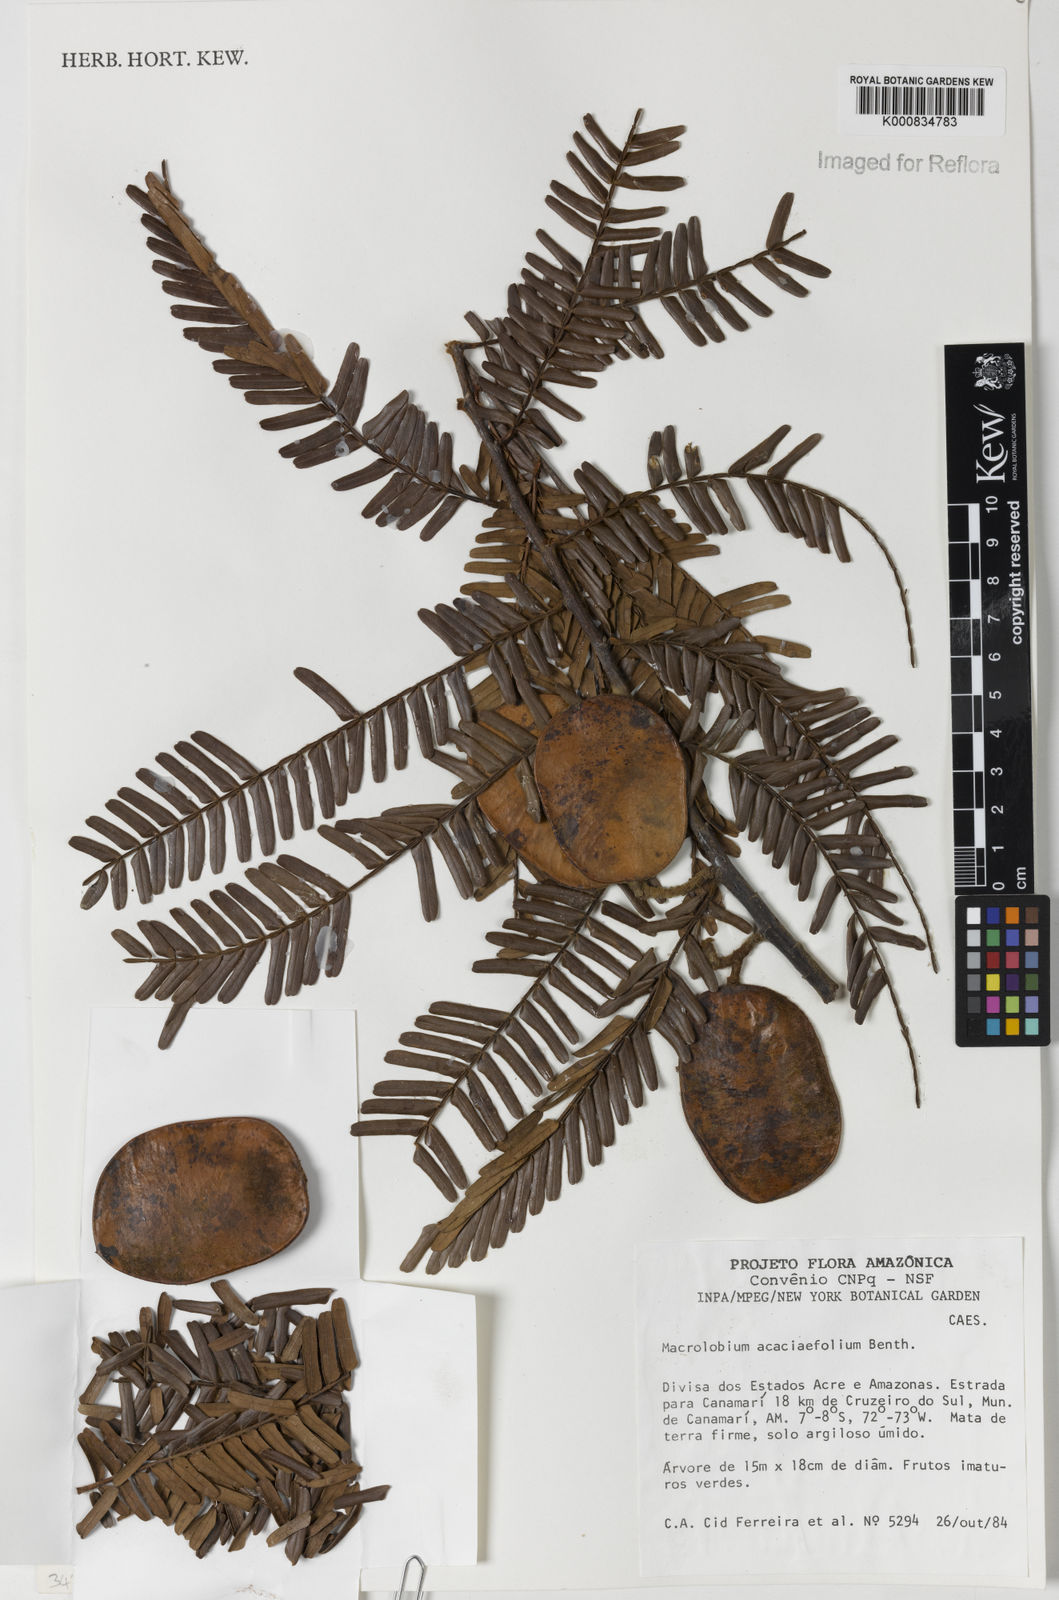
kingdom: Plantae
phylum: Tracheophyta
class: Magnoliopsida
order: Fabales
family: Fabaceae
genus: Macrolobium
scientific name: Macrolobium acaciifolium
